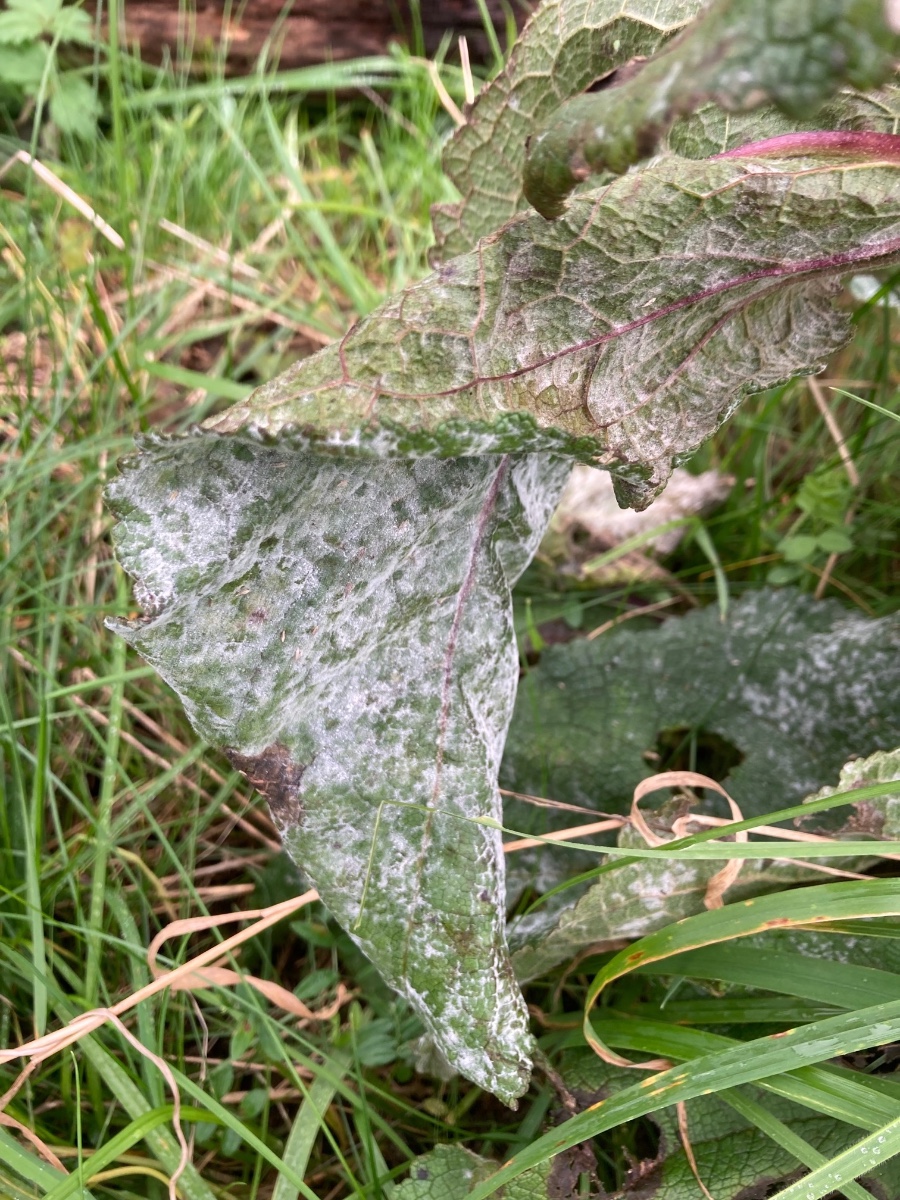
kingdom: Fungi
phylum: Ascomycota
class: Leotiomycetes
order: Helotiales
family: Erysiphaceae
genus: Golovinomyces
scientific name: Golovinomyces verbasci
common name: kongelys-meldug
